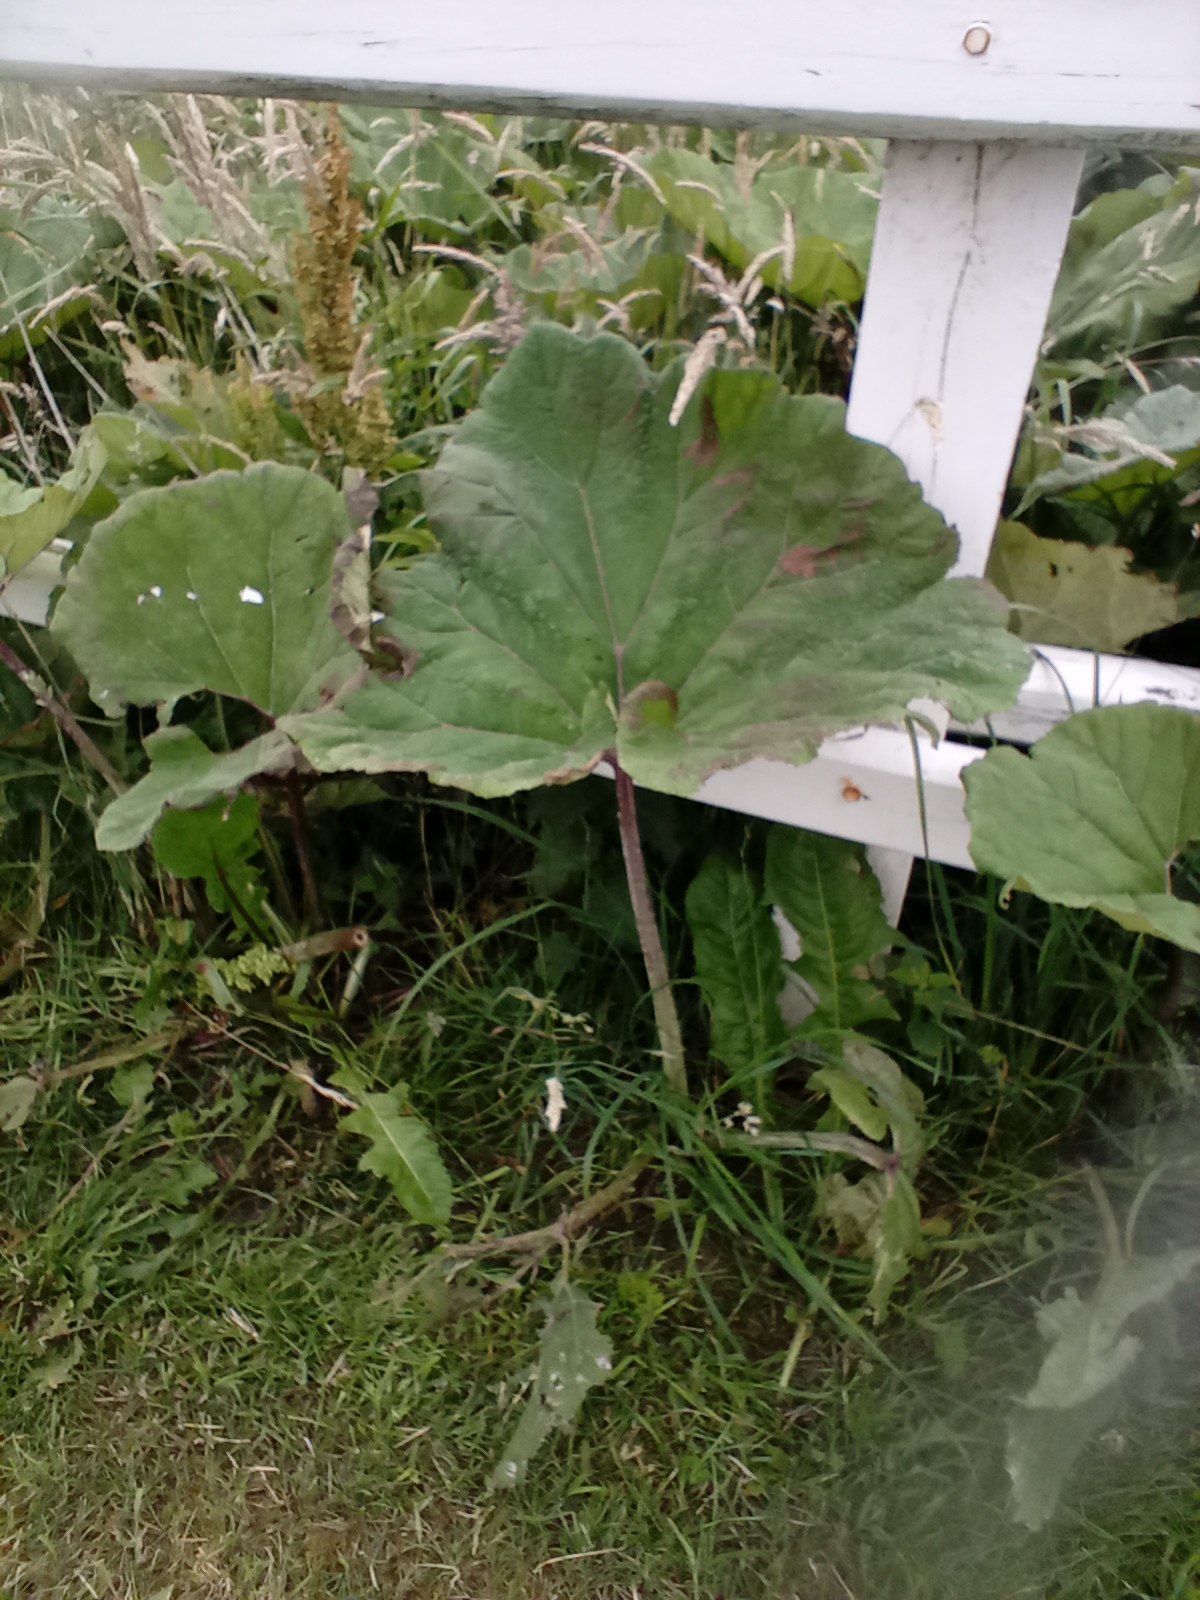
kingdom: Plantae
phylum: Tracheophyta
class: Magnoliopsida
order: Asterales
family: Asteraceae
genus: Petasites
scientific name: Petasites hybridus
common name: Rød hestehov
